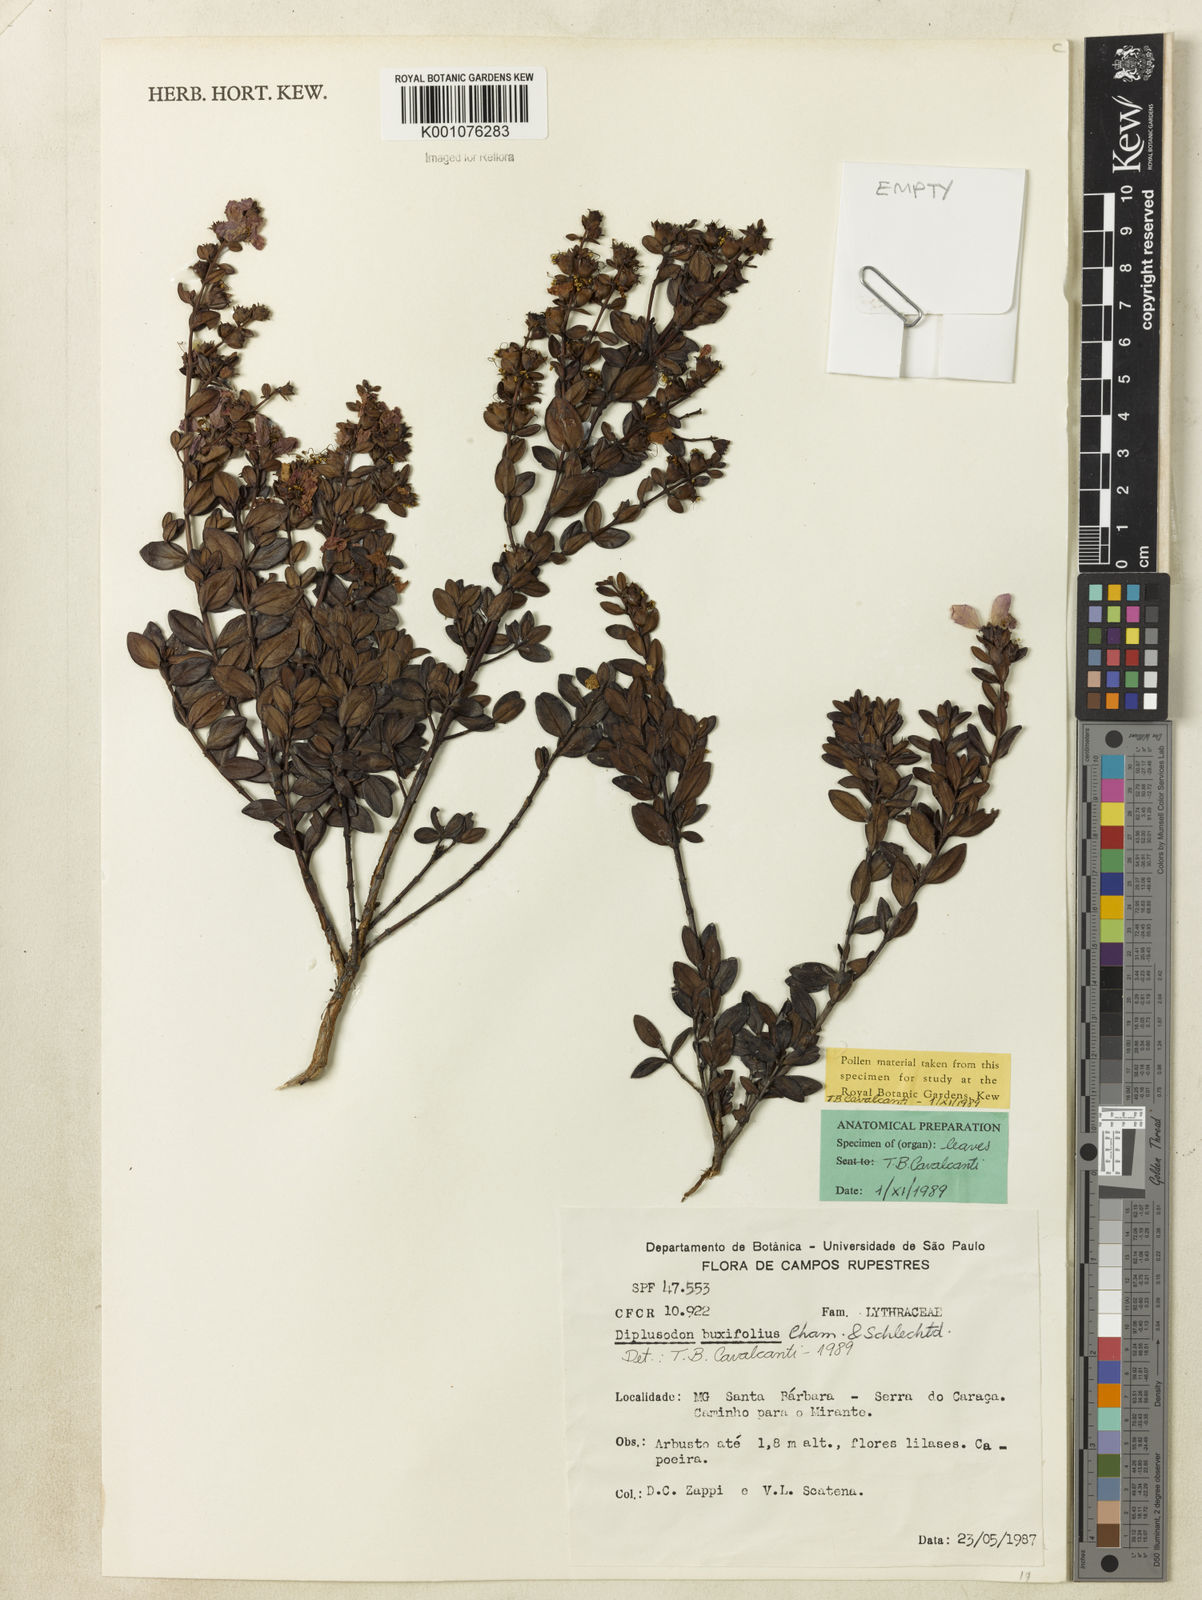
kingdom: Plantae
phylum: Tracheophyta
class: Magnoliopsida
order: Myrtales
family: Lythraceae
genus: Diplusodon
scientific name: Diplusodon buxifolius
